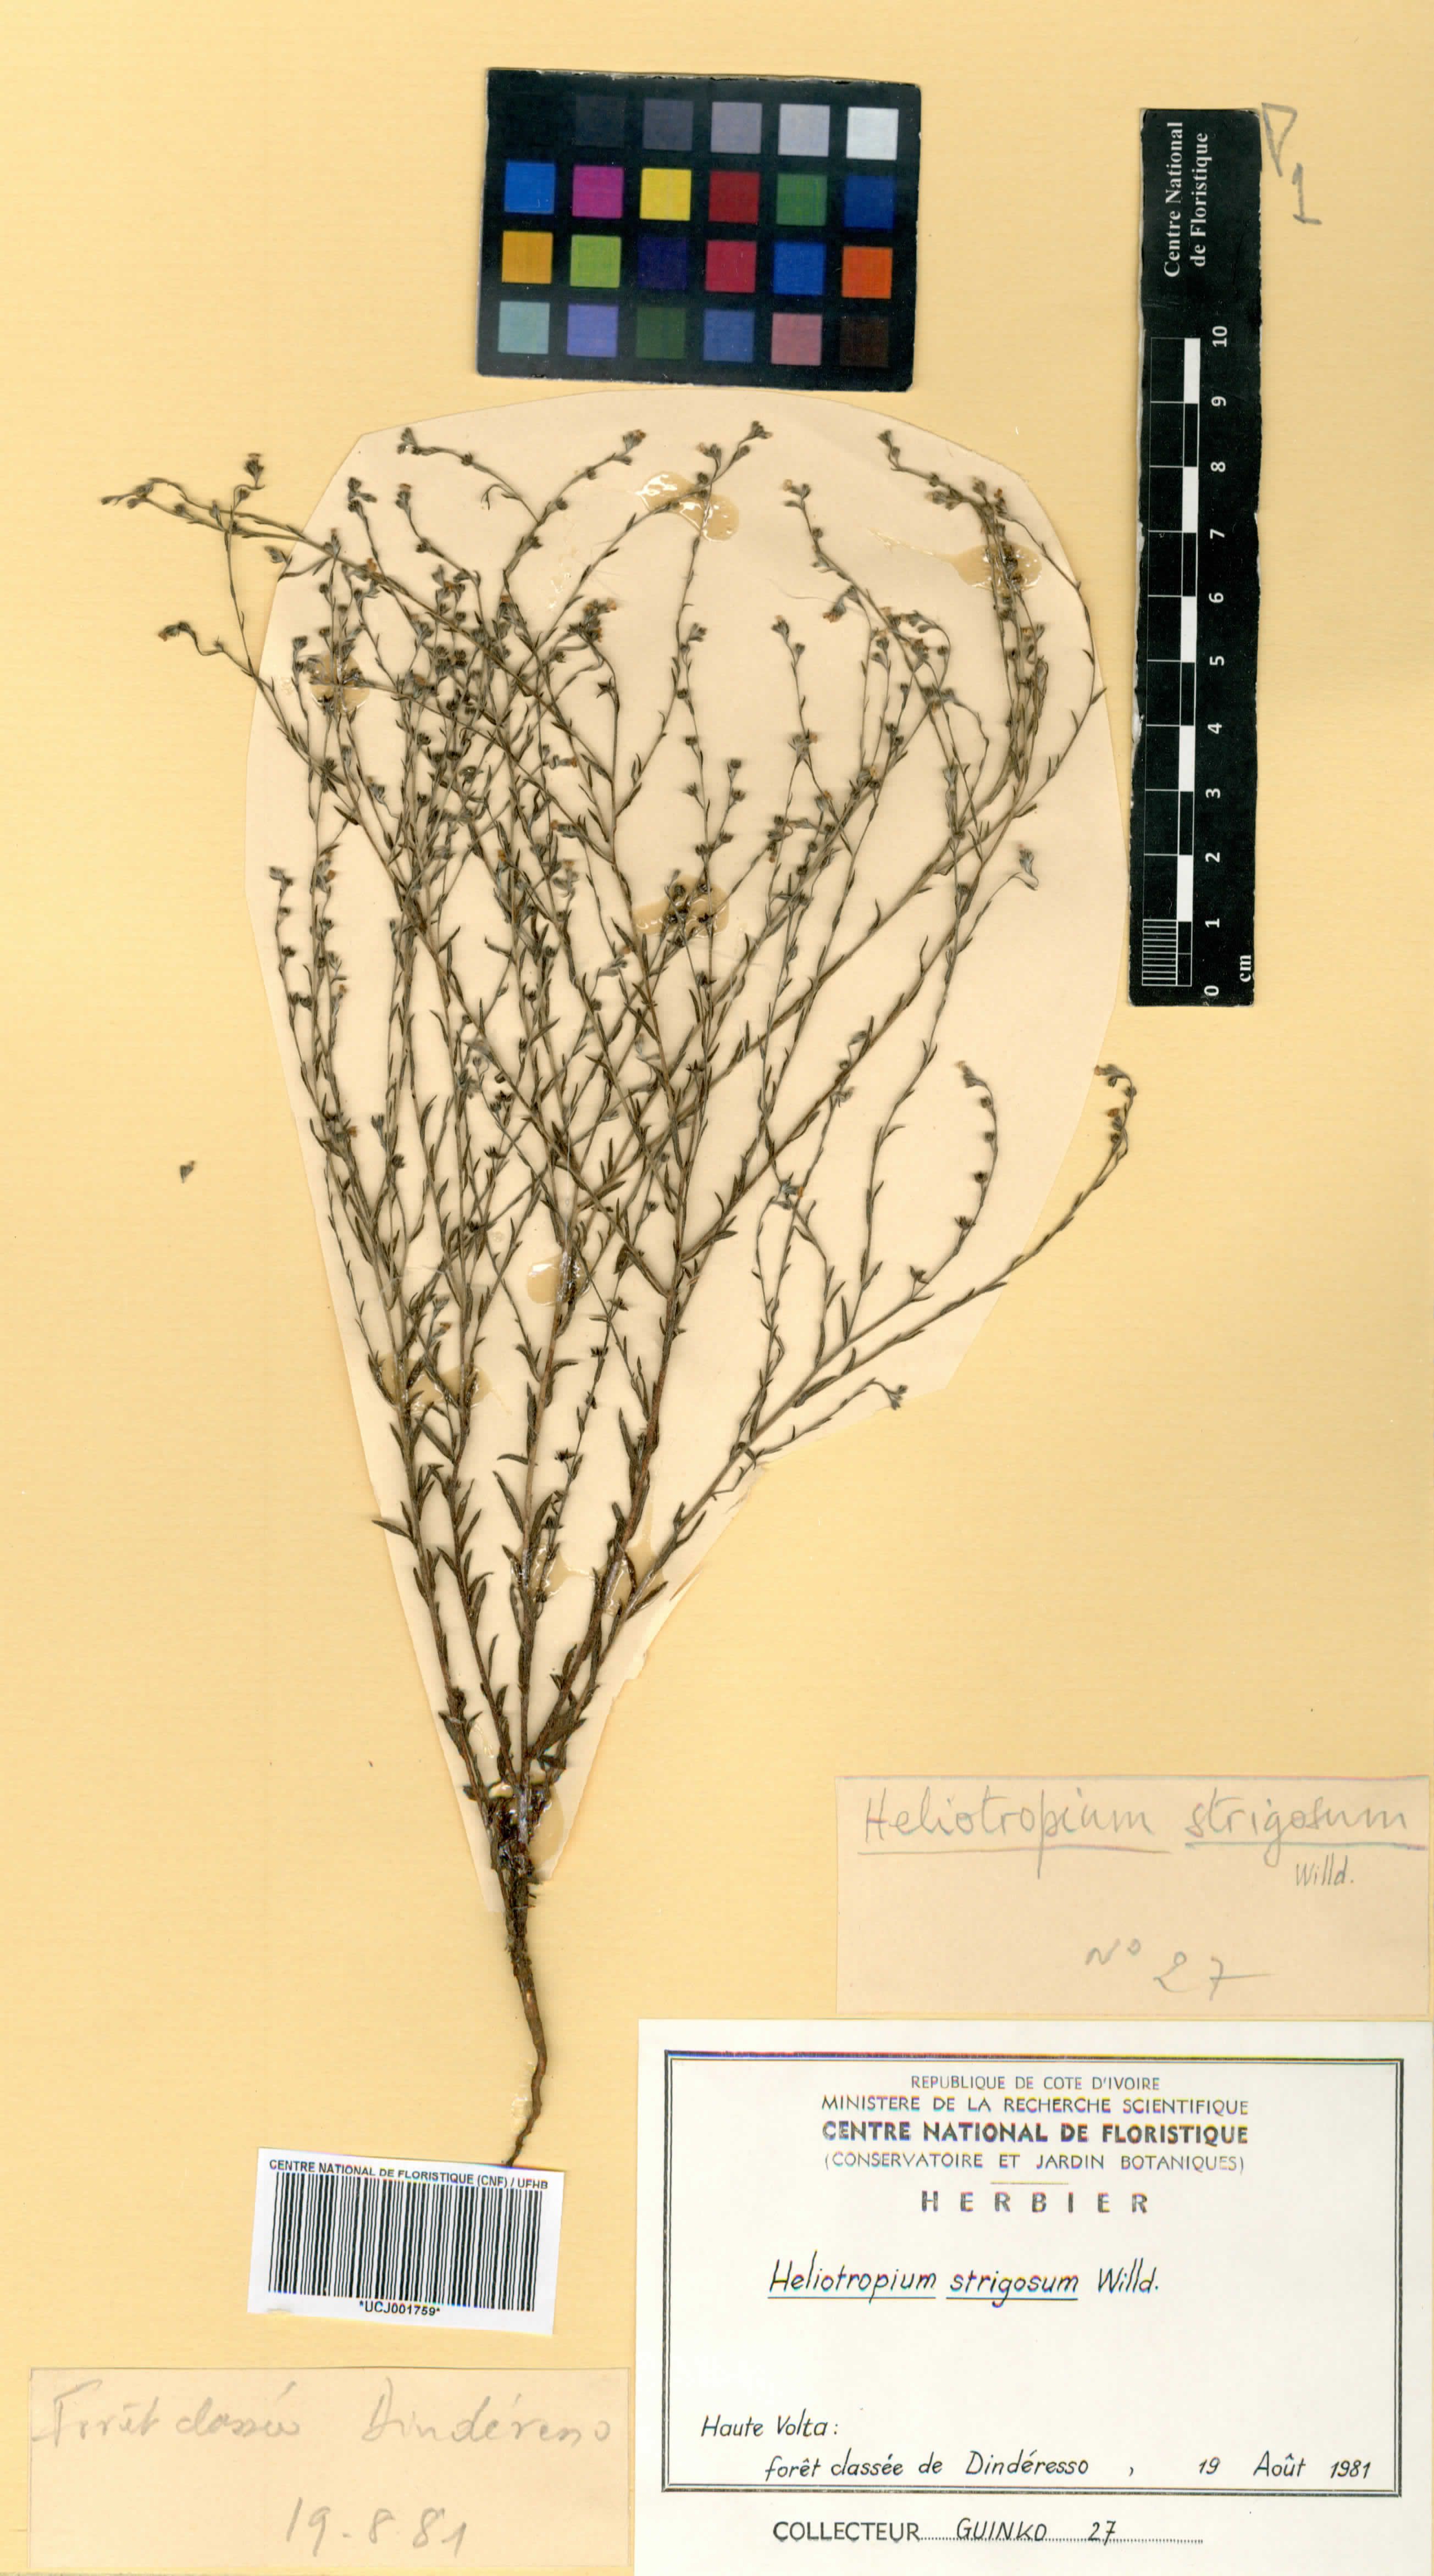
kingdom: Plantae
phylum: Tracheophyta
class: Magnoliopsida
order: Boraginales
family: Heliotropiaceae
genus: Euploca
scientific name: Euploca strigosa
